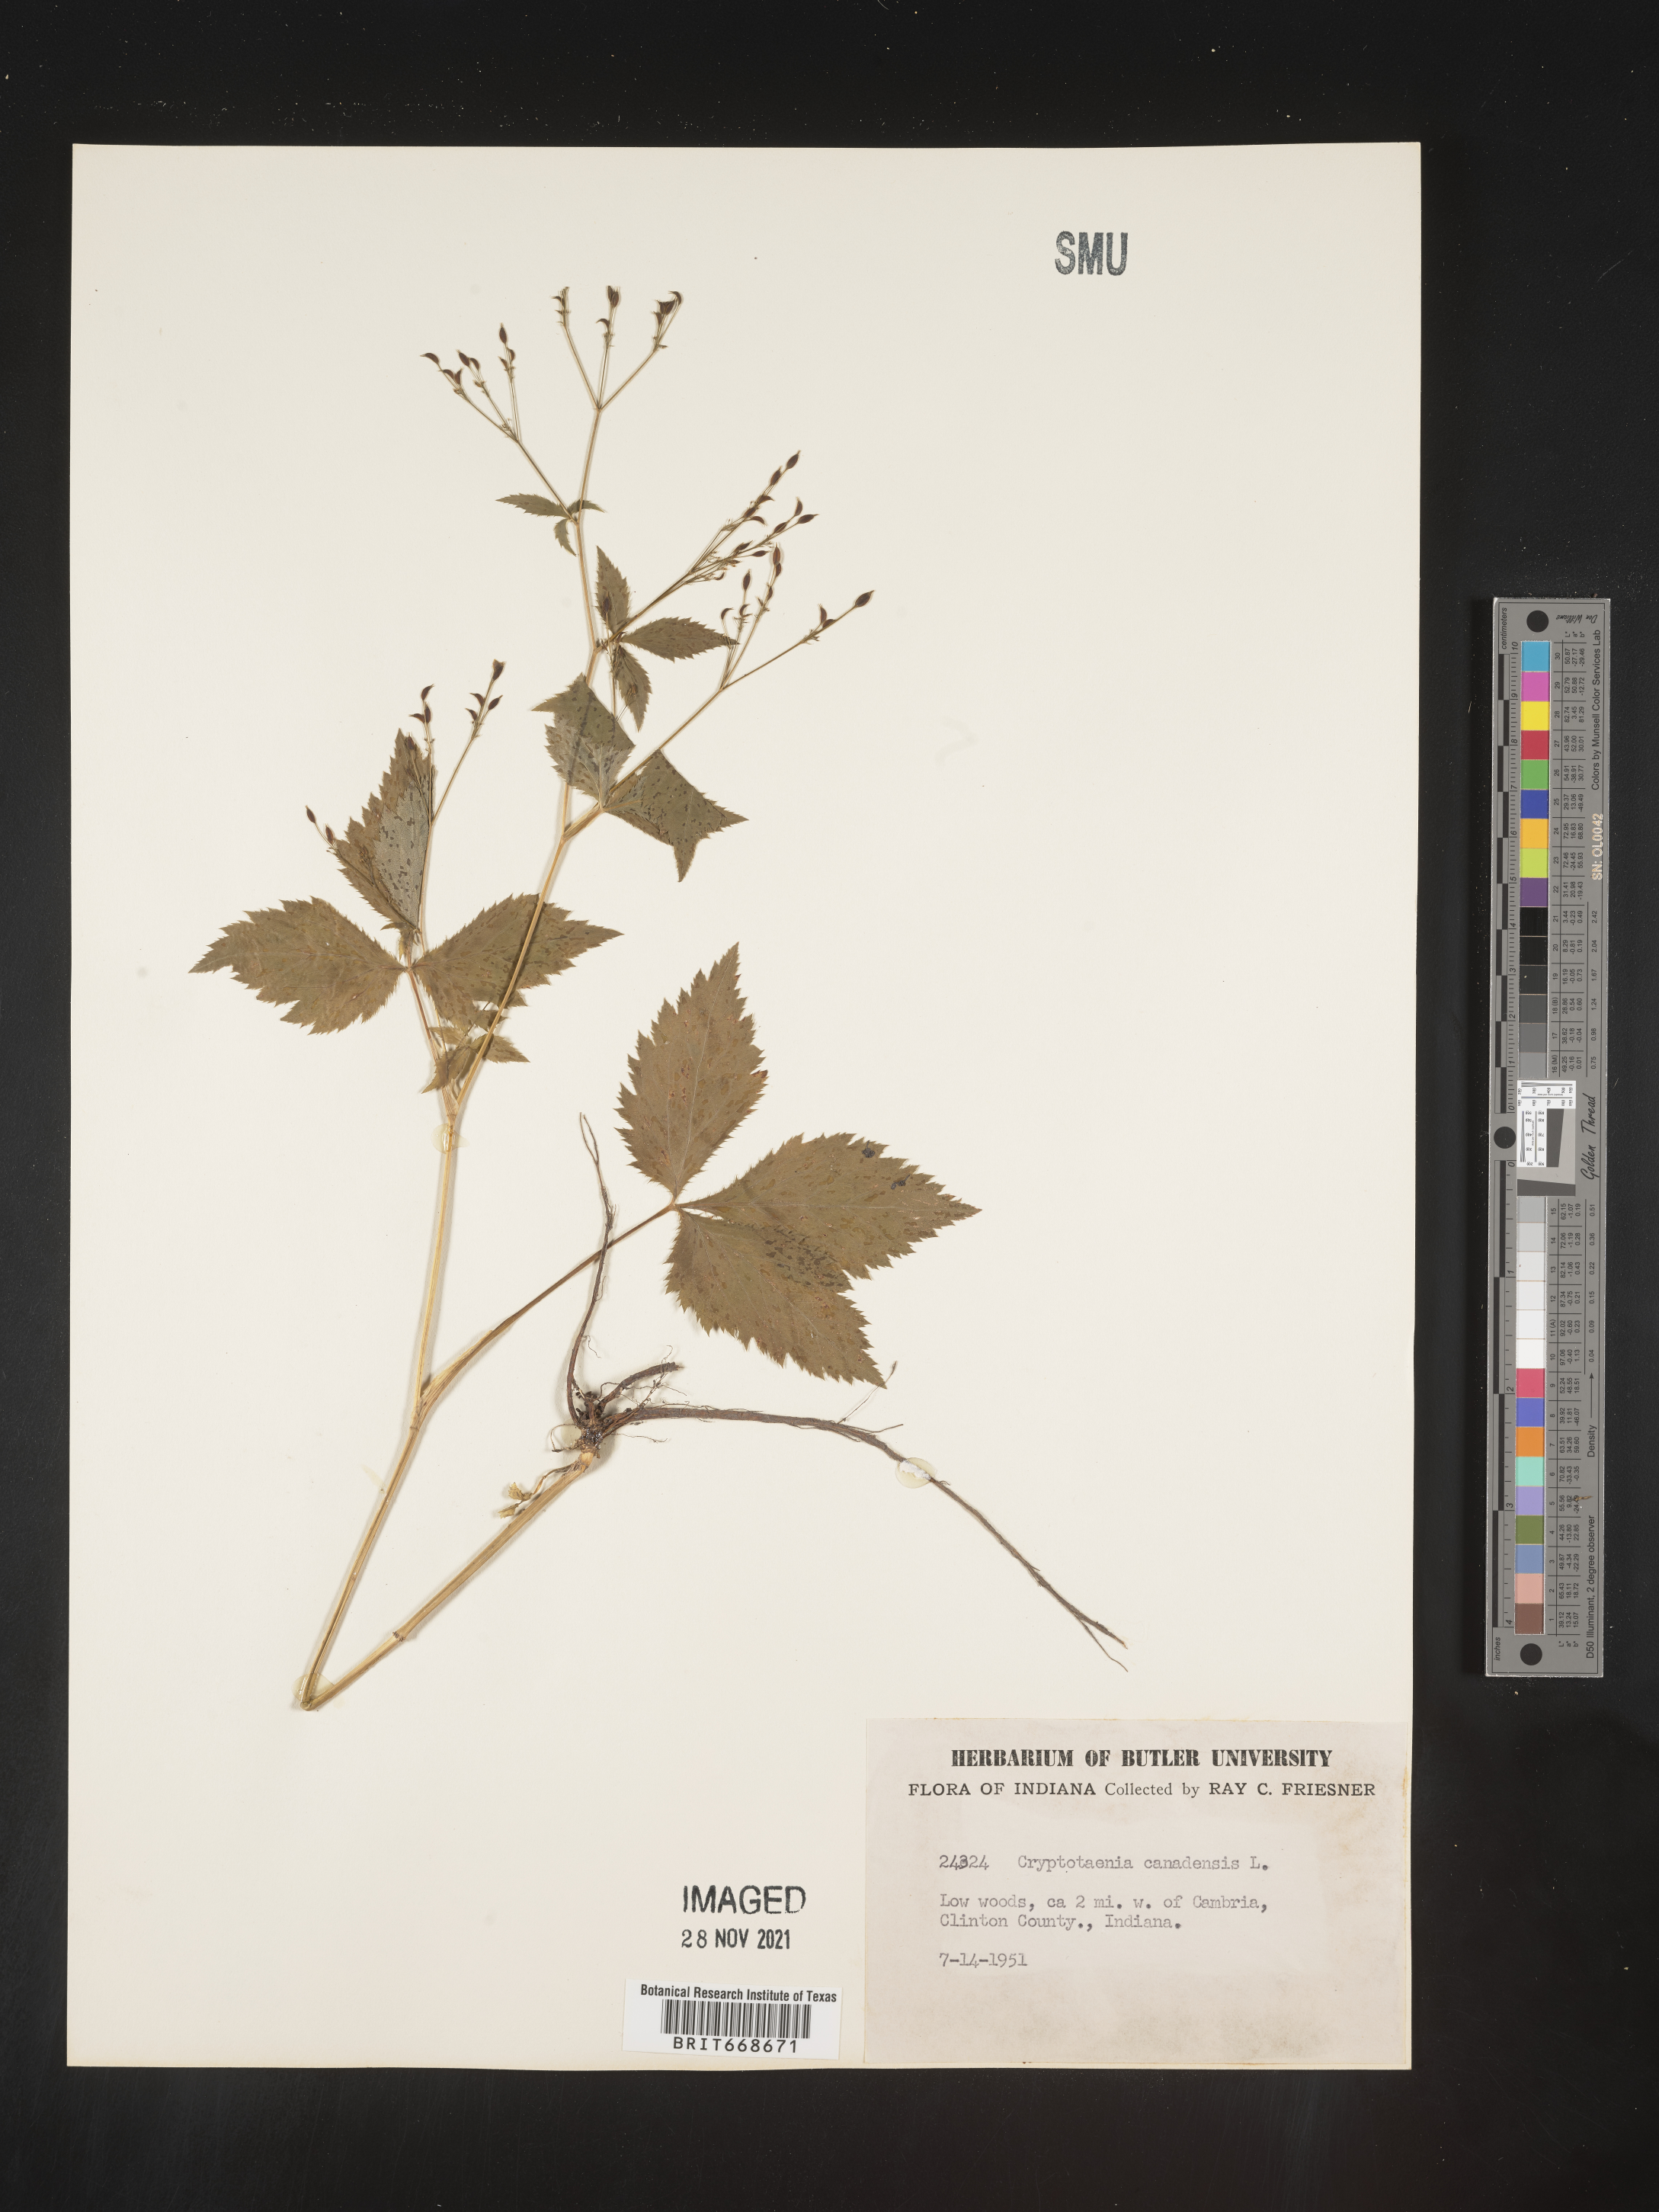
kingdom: Plantae
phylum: Tracheophyta
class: Magnoliopsida
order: Apiales
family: Apiaceae
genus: Cryptotaenia
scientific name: Cryptotaenia canadensis
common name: Honewort
